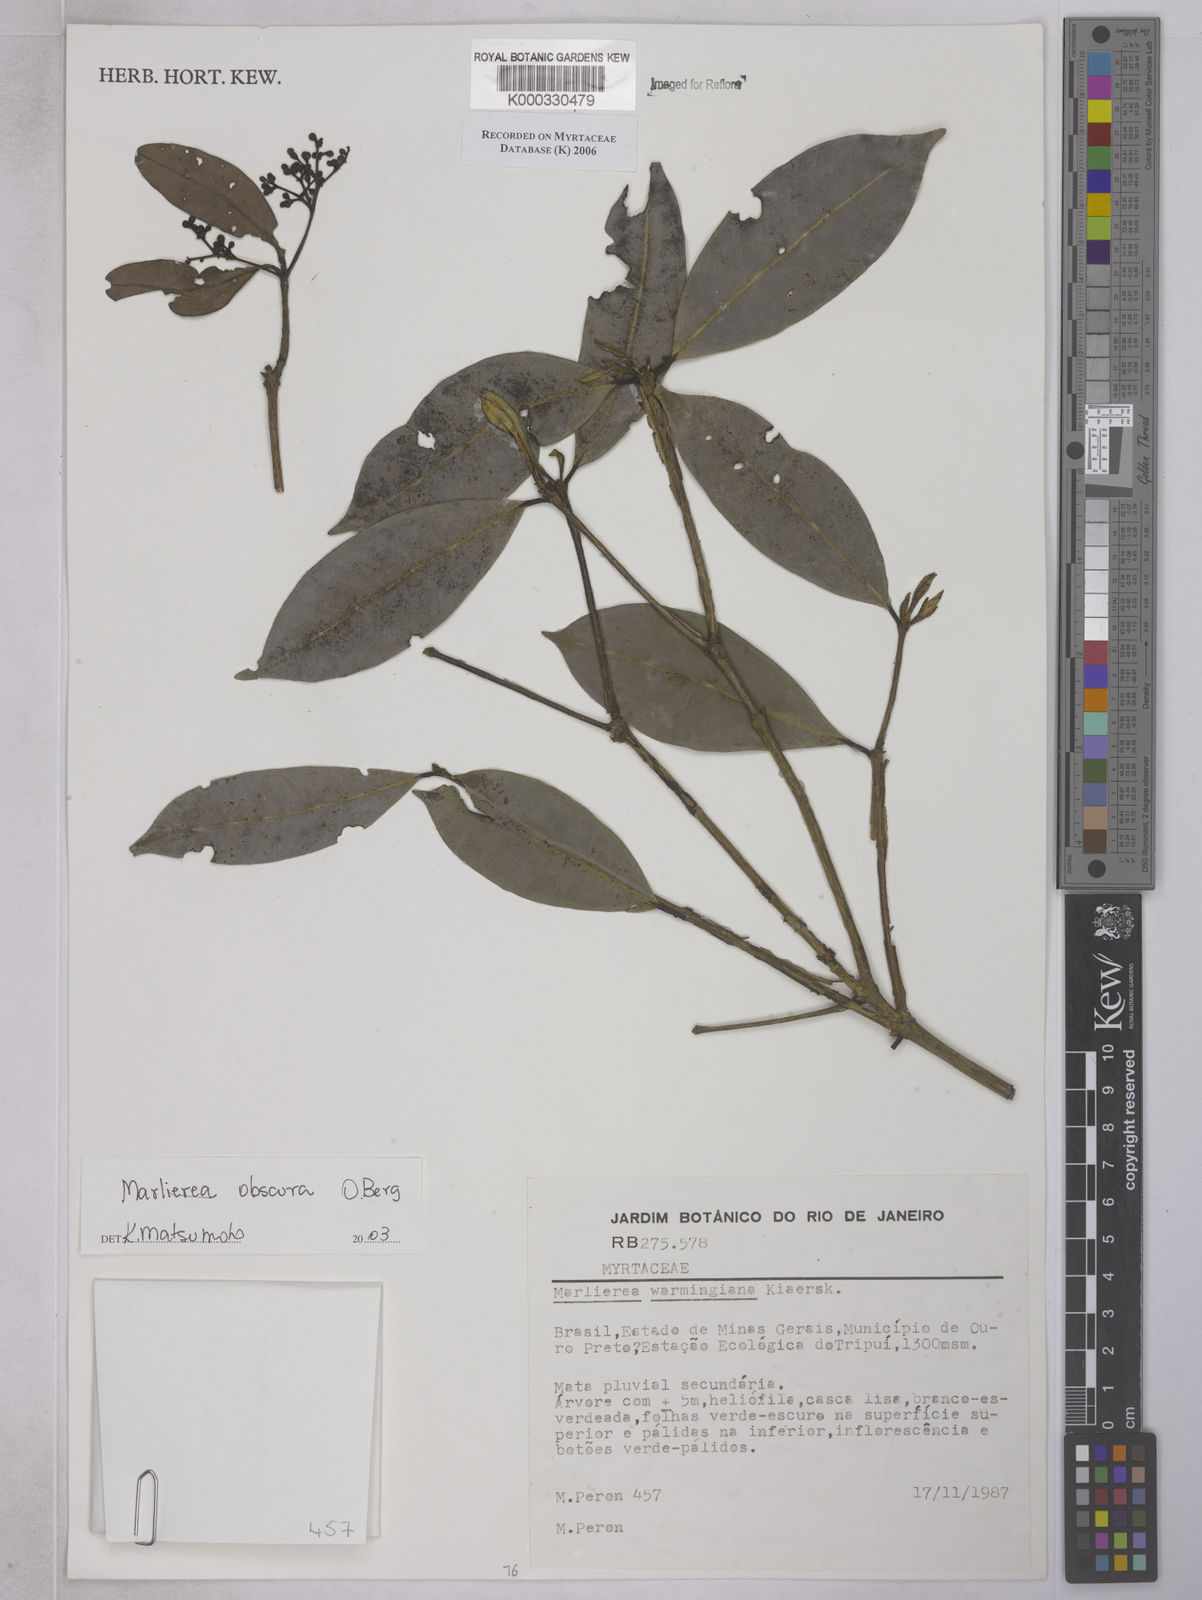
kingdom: Plantae
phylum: Tracheophyta
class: Magnoliopsida
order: Myrtales
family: Myrtaceae
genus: Myrcia
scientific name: Myrcia neoobscura
